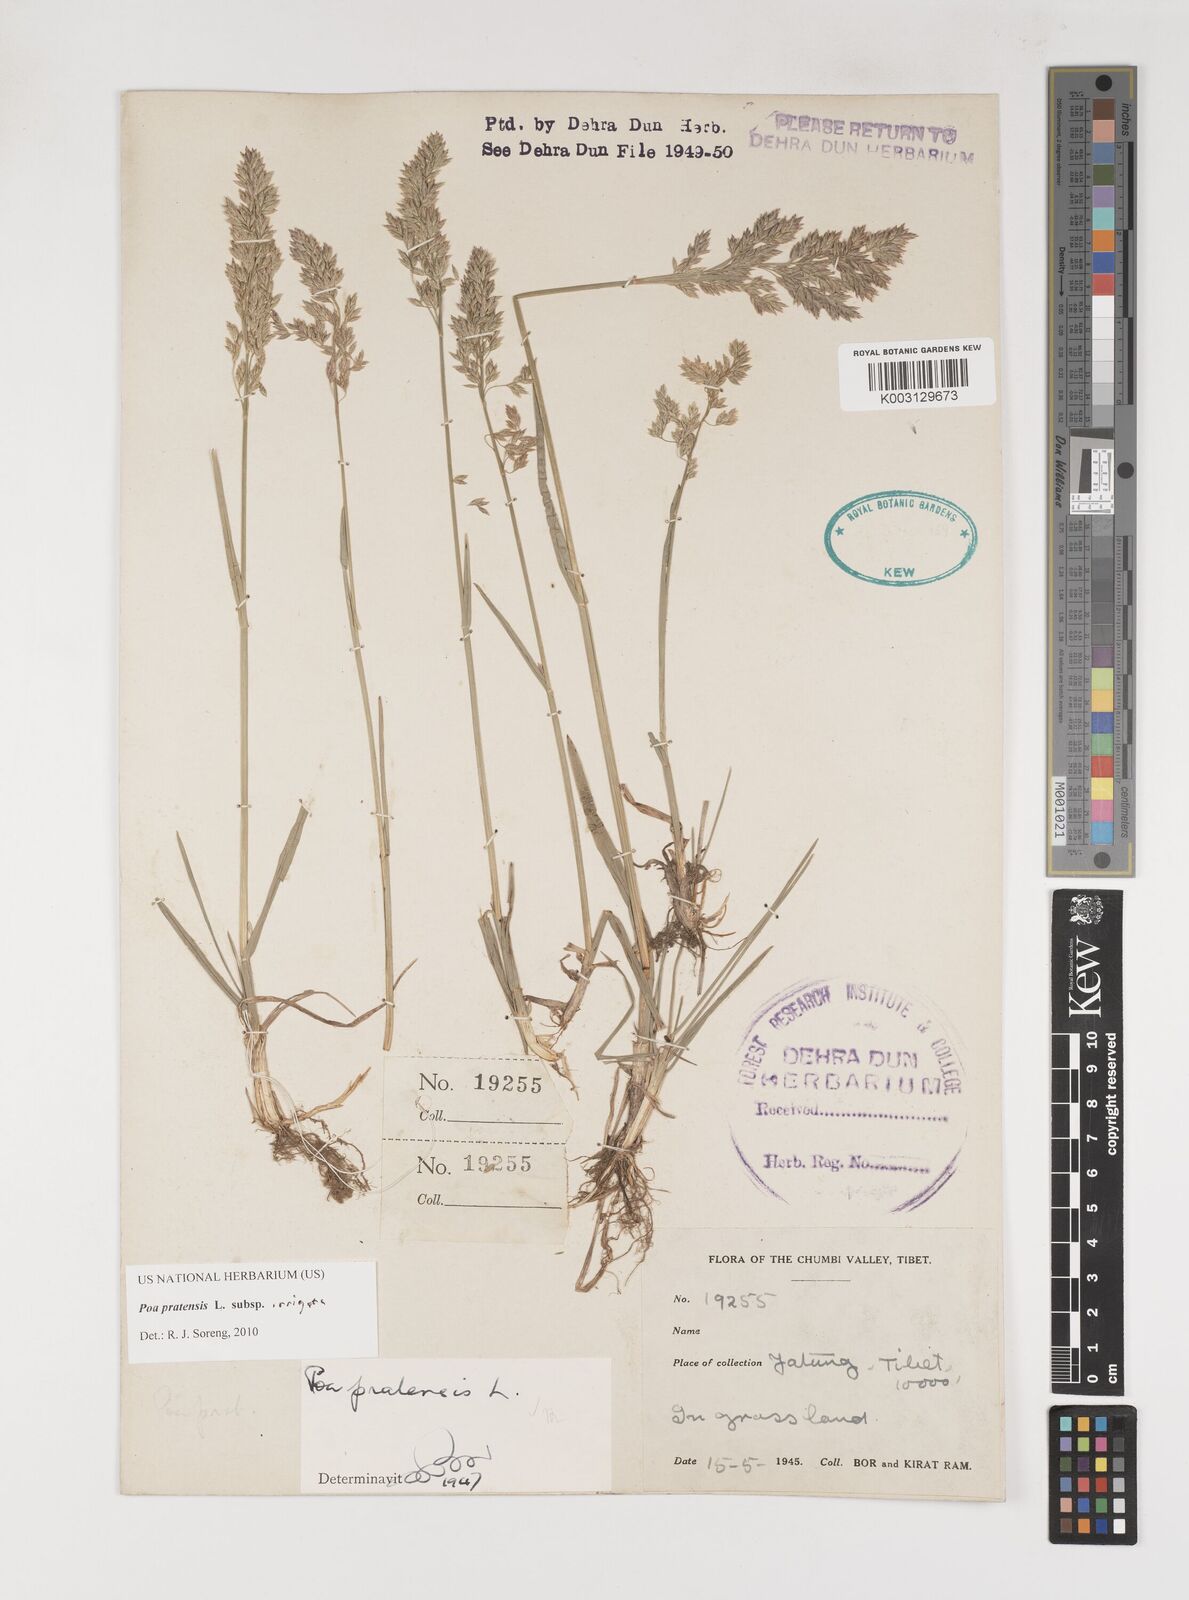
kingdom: Plantae
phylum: Tracheophyta
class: Liliopsida
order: Poales
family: Poaceae
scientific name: Poaceae
